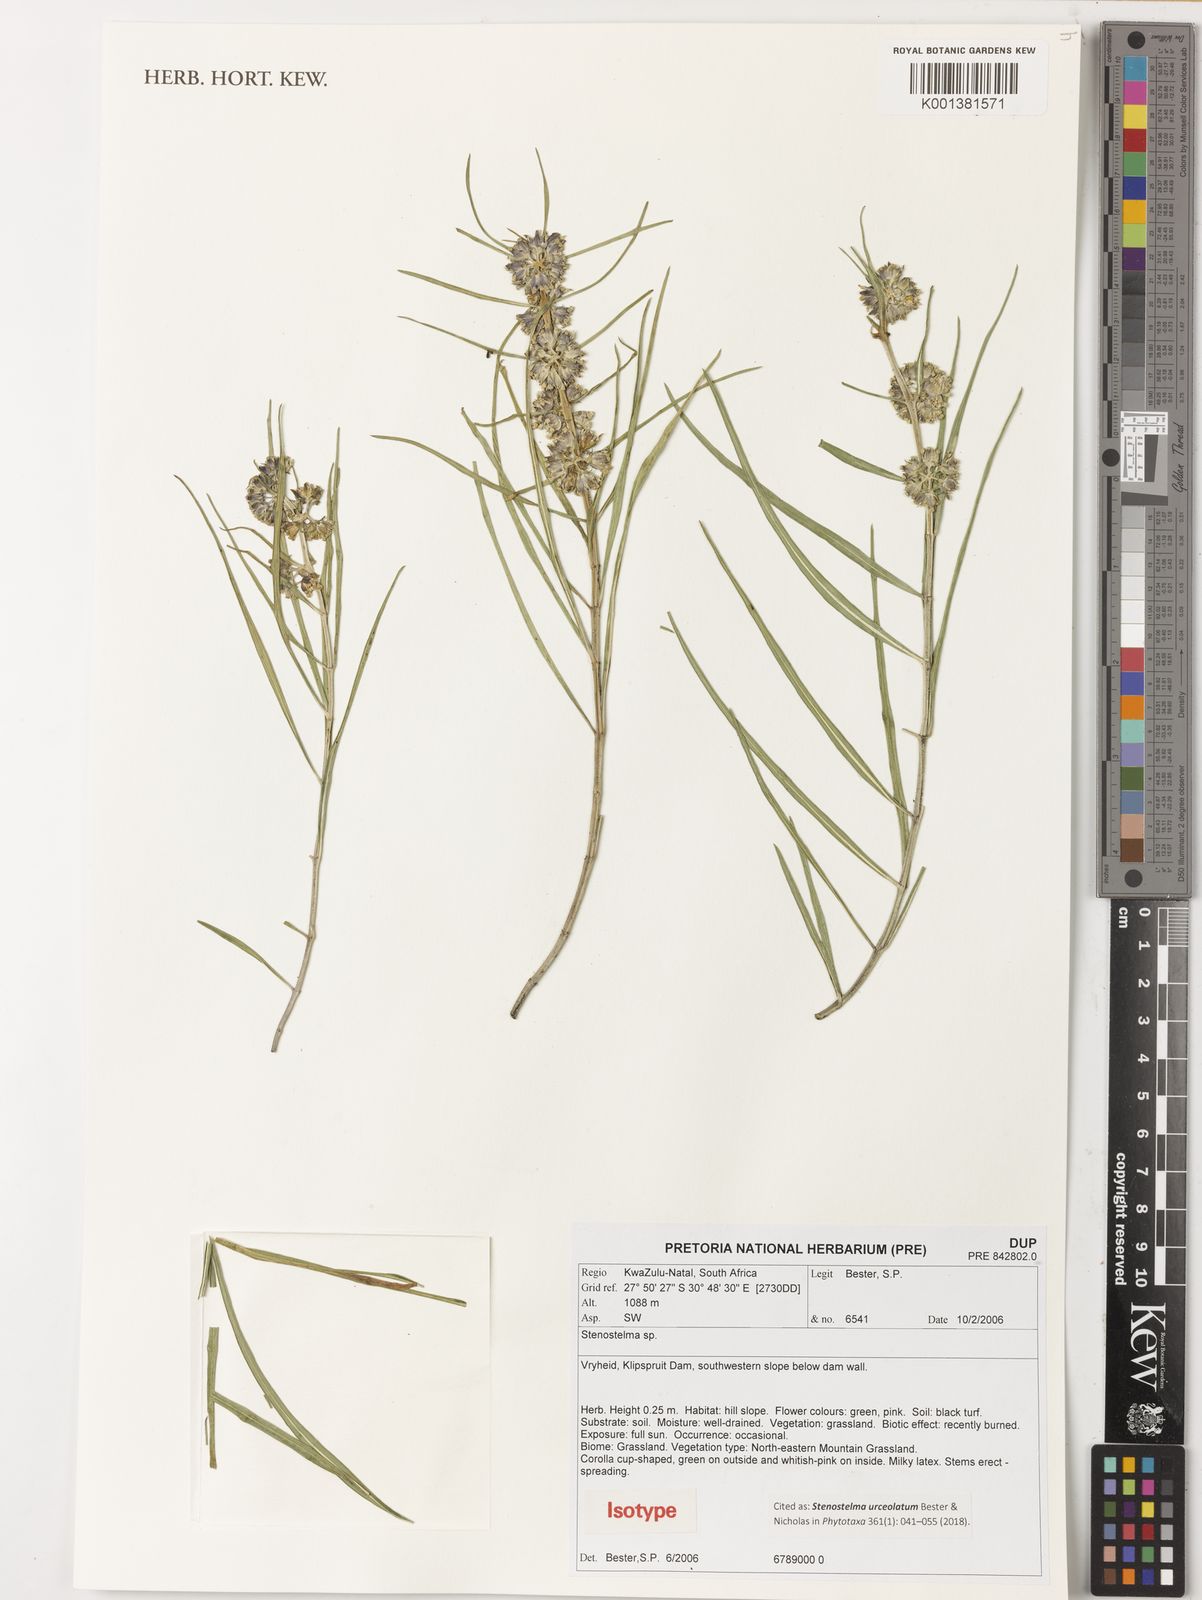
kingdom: Plantae
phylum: Tracheophyta
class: Magnoliopsida
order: Gentianales
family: Apocynaceae
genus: Stenostelma
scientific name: Stenostelma urceolatum
